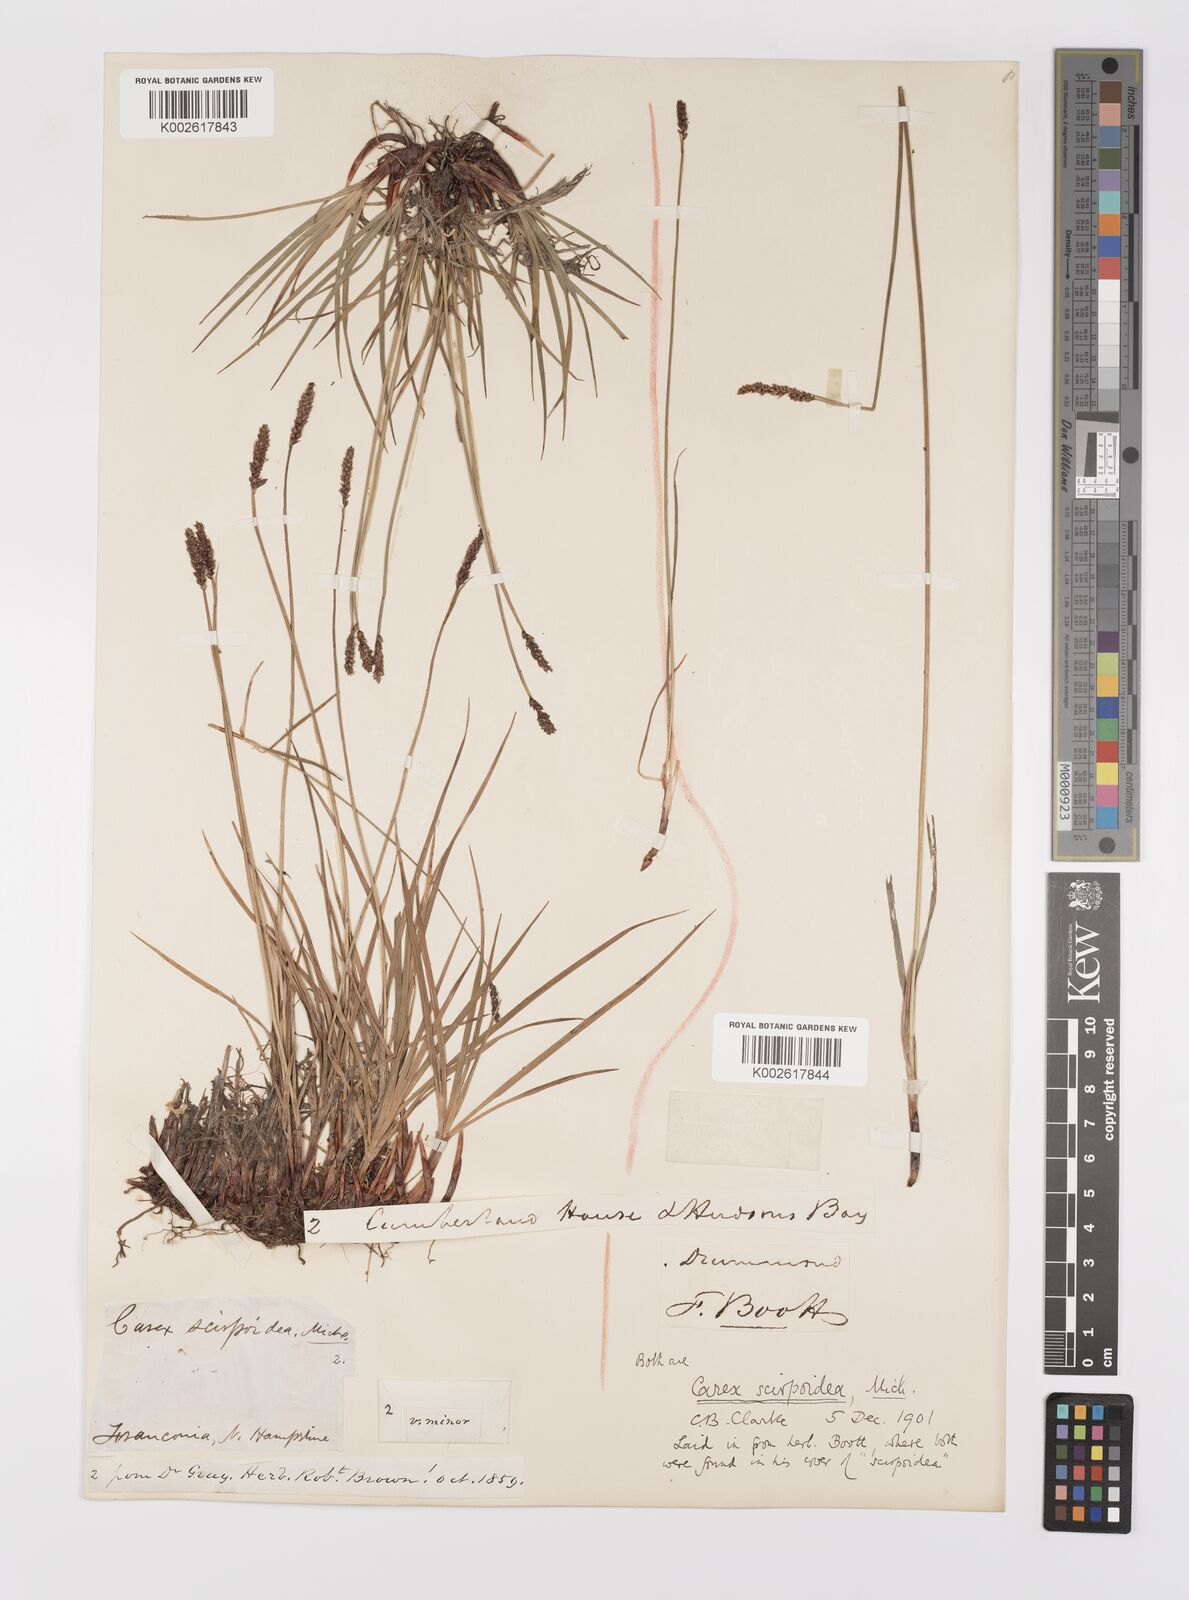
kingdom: Plantae
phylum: Tracheophyta
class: Liliopsida
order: Poales
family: Cyperaceae
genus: Carex
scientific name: Carex scirpoidea
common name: Canada single-spike sedge
